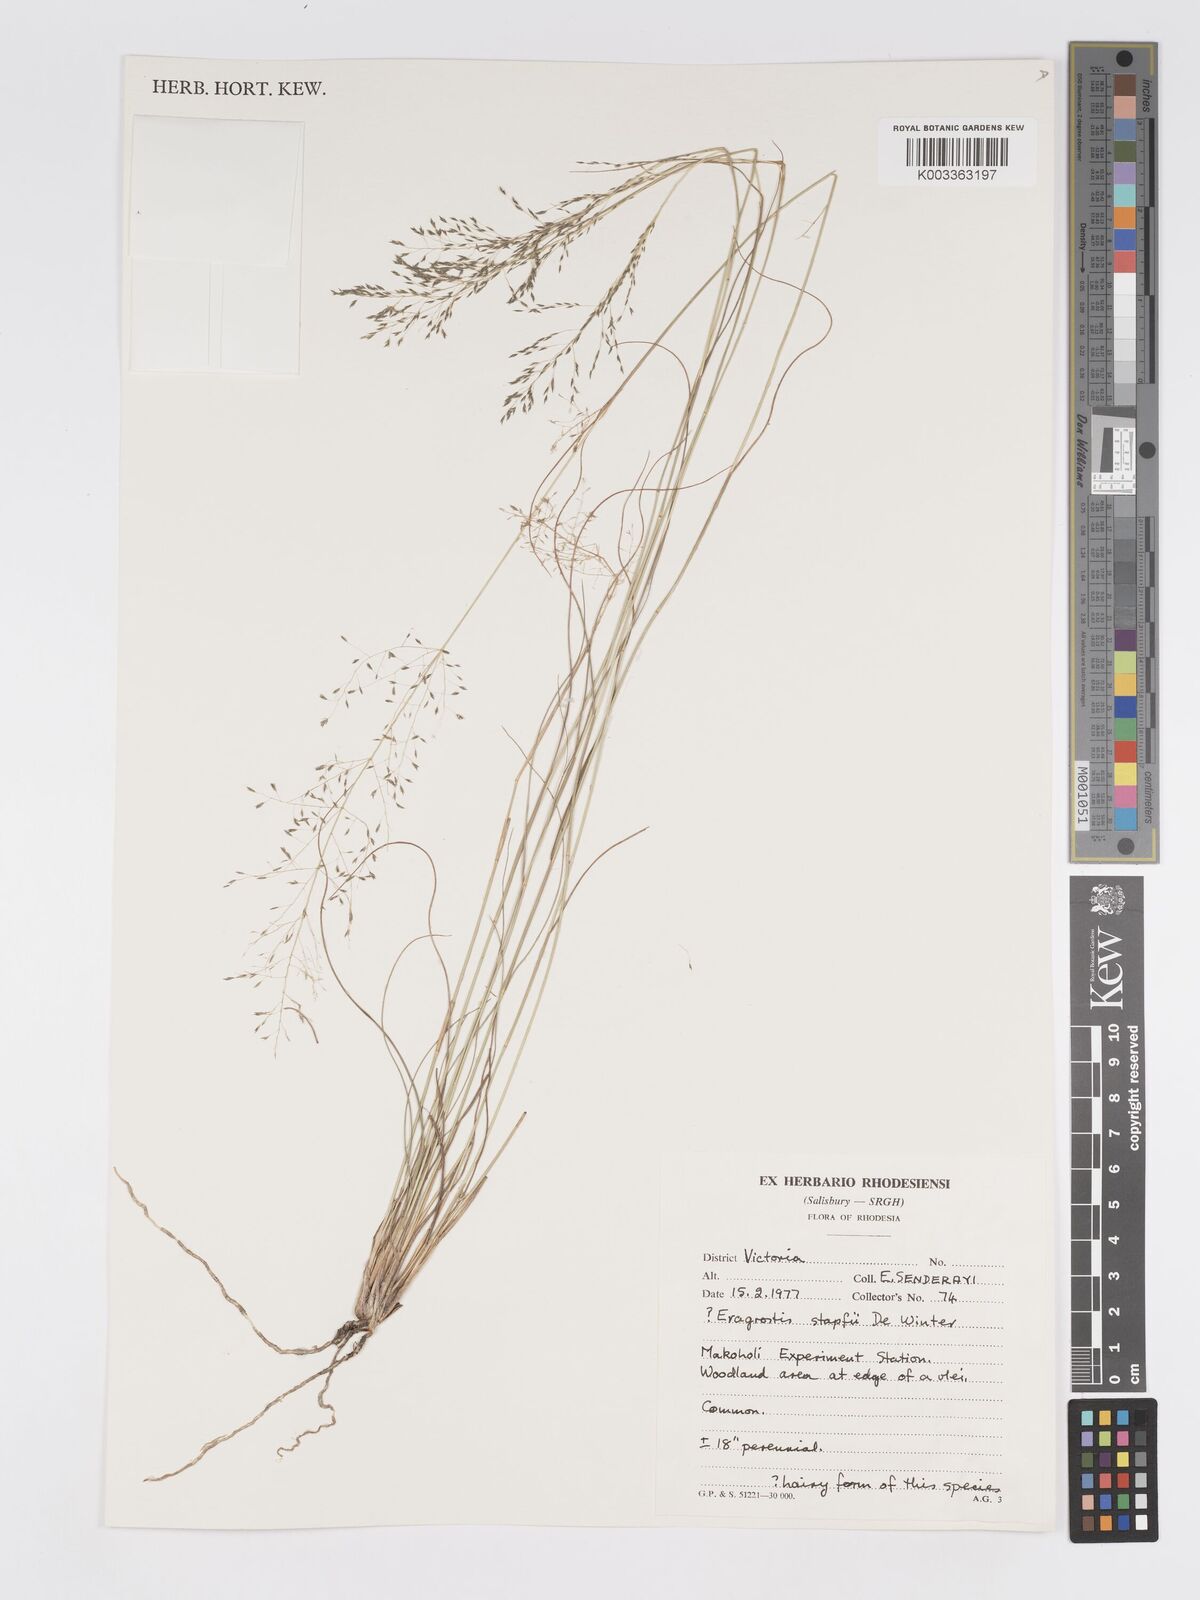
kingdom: Plantae
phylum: Tracheophyta
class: Liliopsida
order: Poales
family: Poaceae
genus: Eragrostis
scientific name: Eragrostis stapfii
